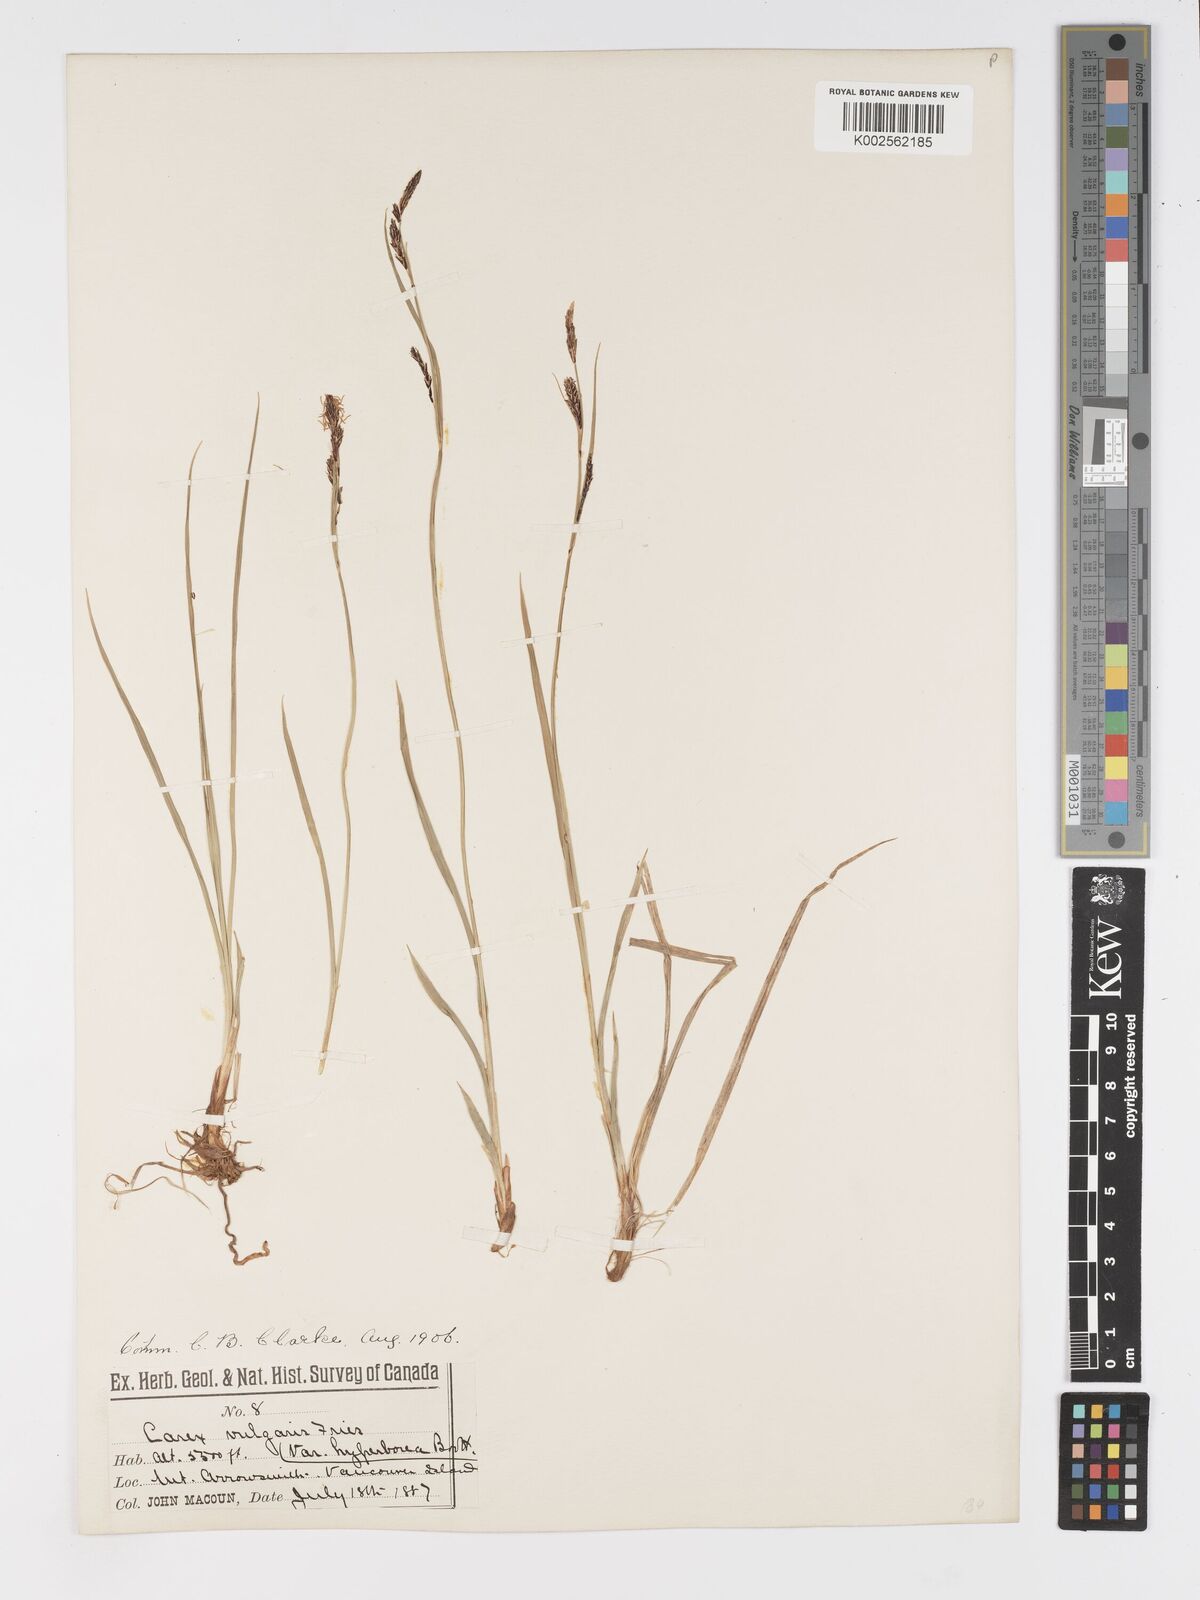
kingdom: Plantae
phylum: Tracheophyta
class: Liliopsida
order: Poales
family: Cyperaceae
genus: Carex
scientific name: Carex nigra
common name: Common sedge
